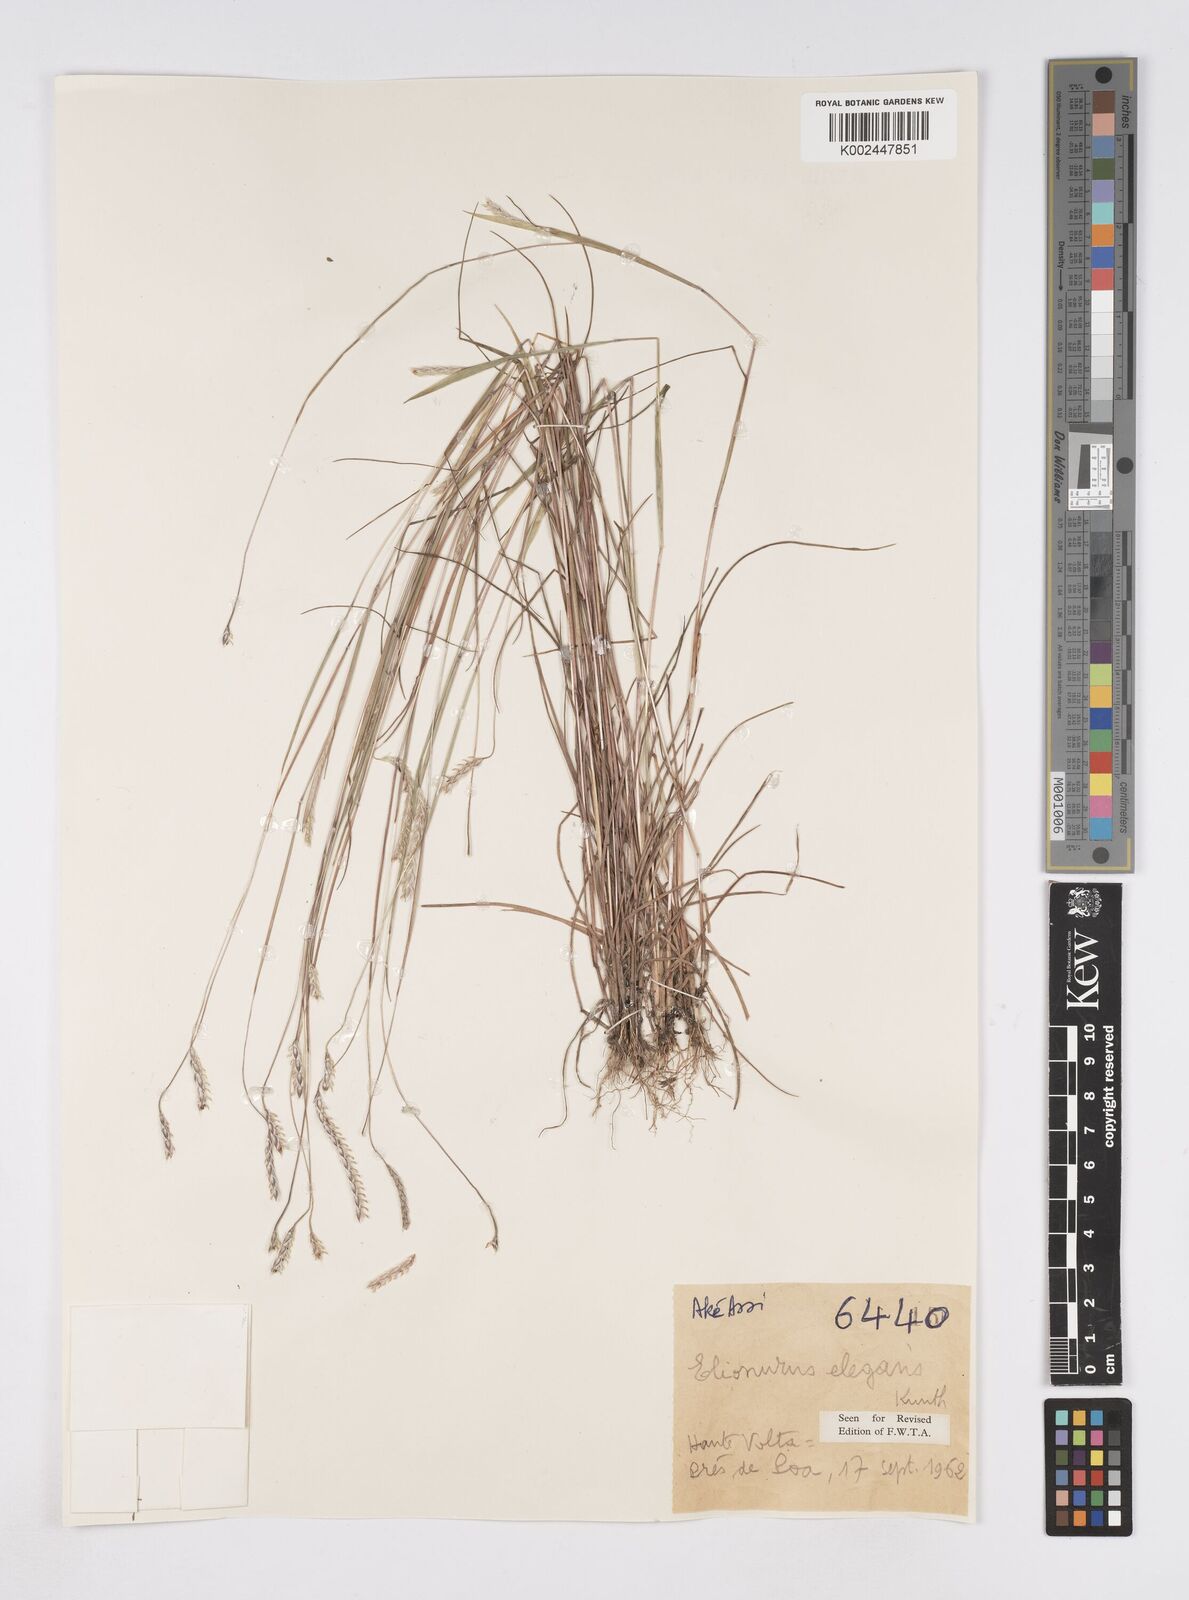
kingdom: Plantae
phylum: Tracheophyta
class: Liliopsida
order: Poales
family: Poaceae
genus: Elionurus
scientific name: Elionurus elegans
